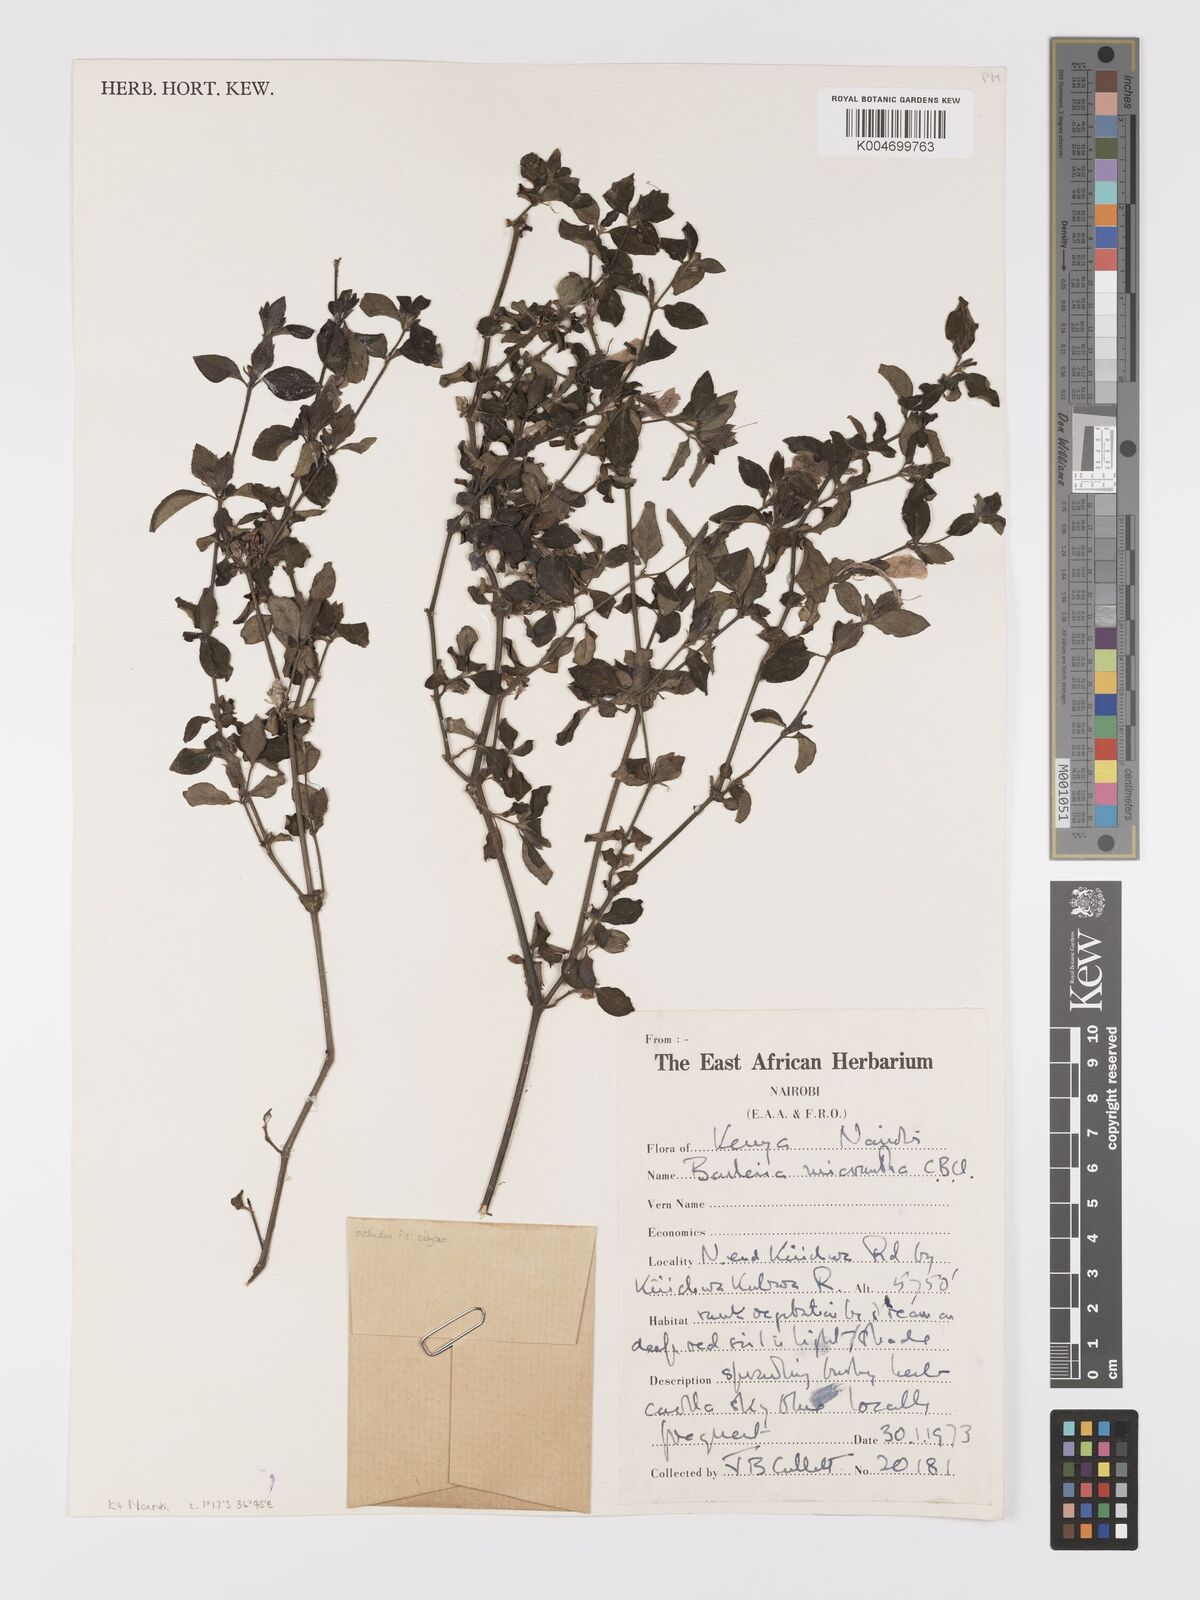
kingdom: Plantae
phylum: Tracheophyta
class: Magnoliopsida
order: Lamiales
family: Acanthaceae
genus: Barleria
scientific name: Barleria ventricosa
